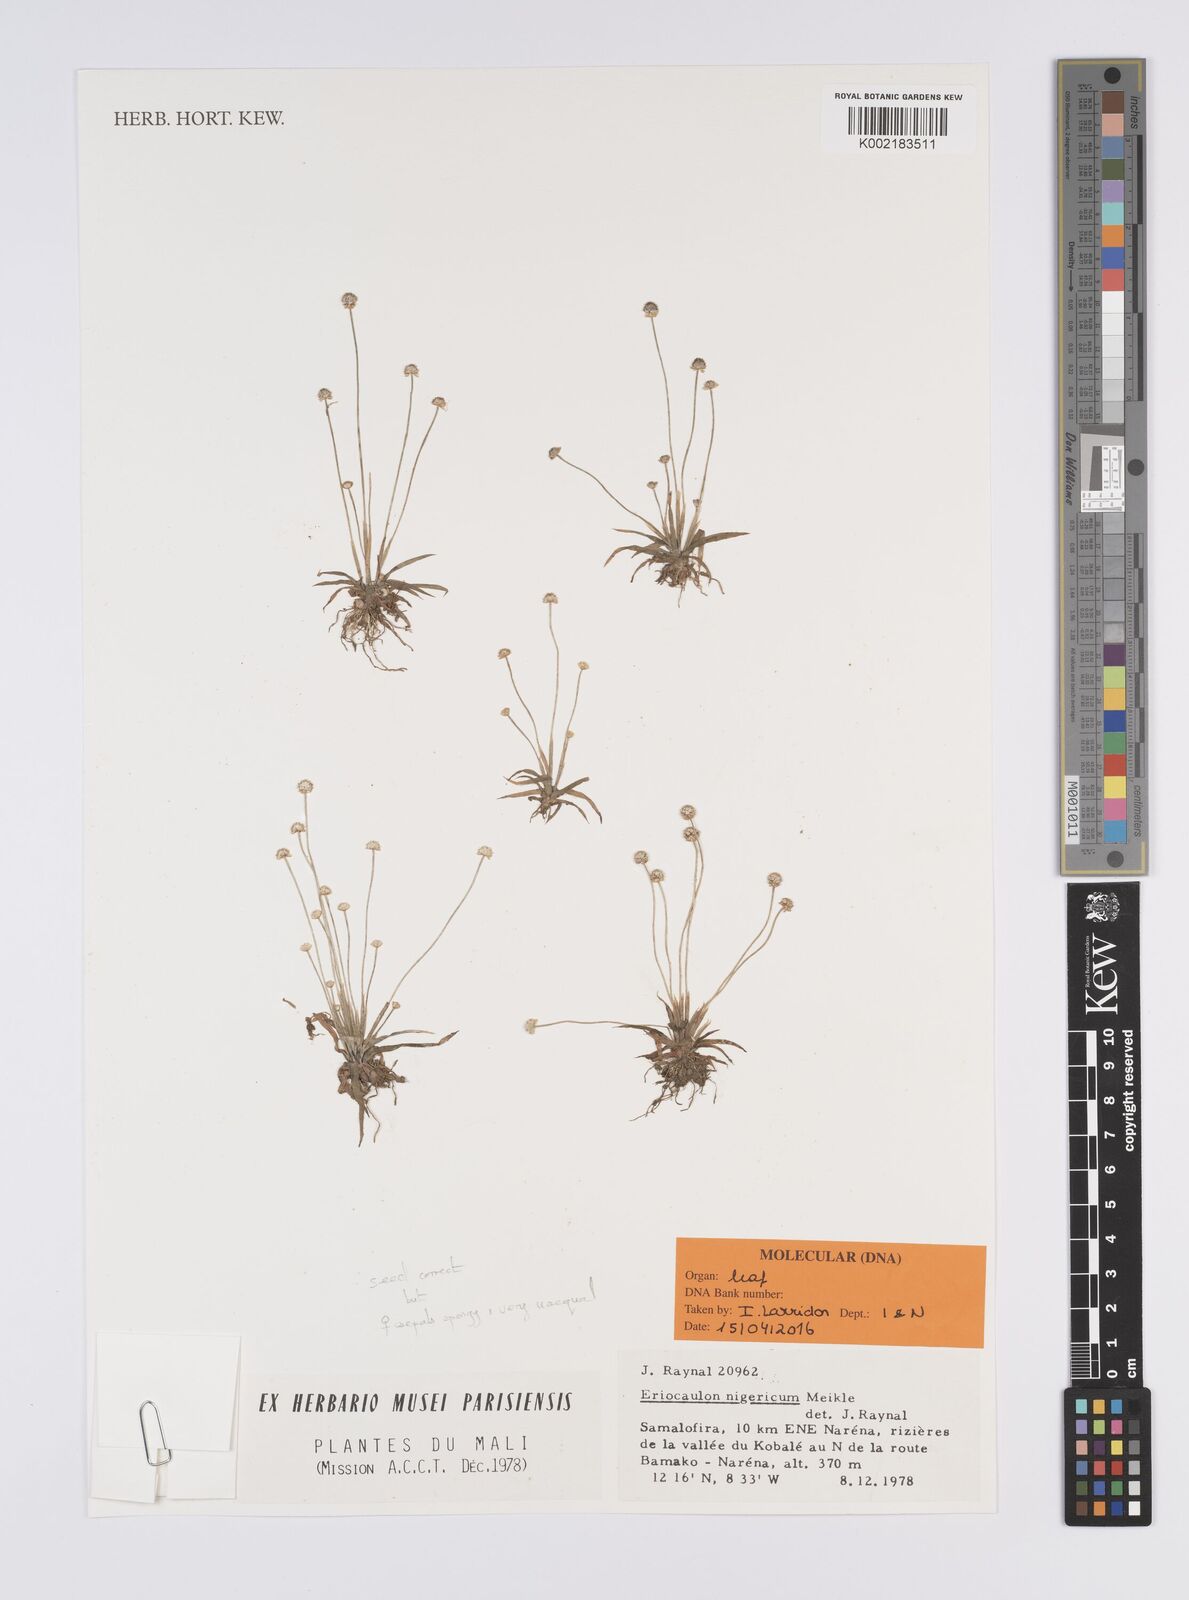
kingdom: Plantae
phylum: Tracheophyta
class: Liliopsida
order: Poales
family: Eriocaulaceae
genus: Eriocaulon
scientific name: Eriocaulon nigericum
